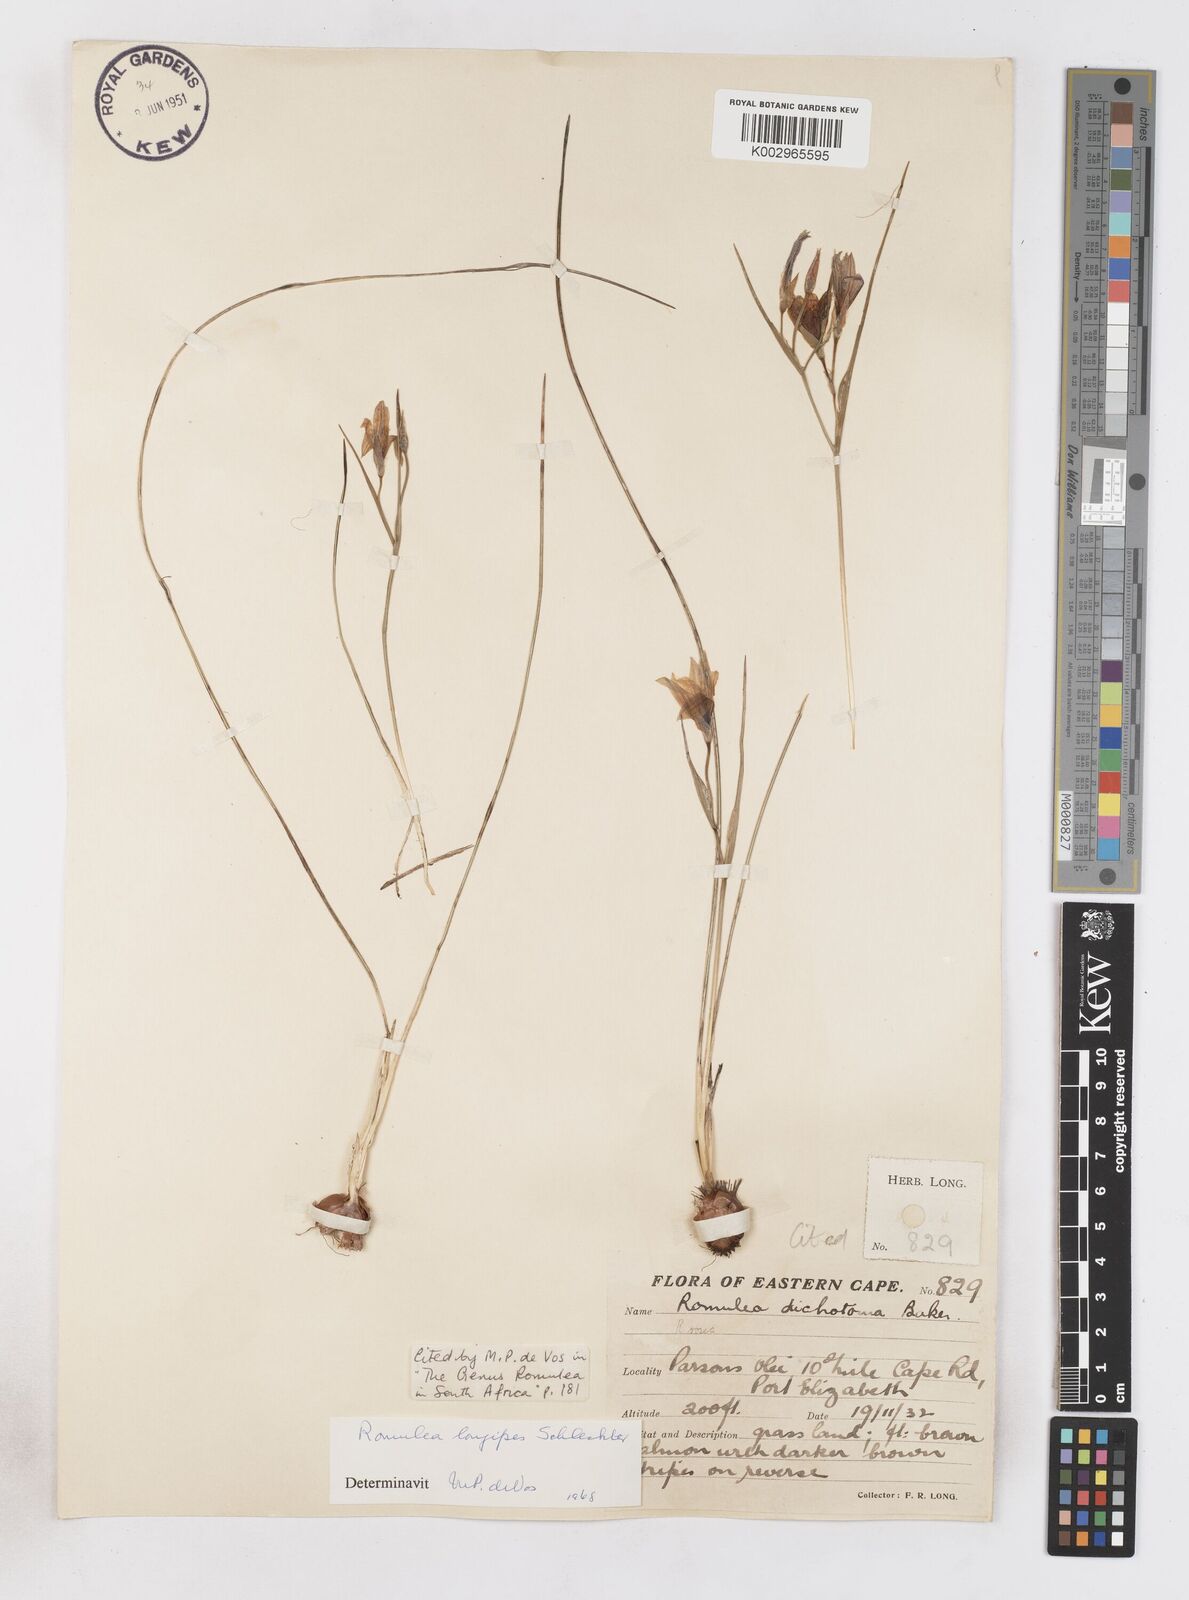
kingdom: Plantae
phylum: Tracheophyta
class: Liliopsida
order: Asparagales
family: Iridaceae
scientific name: Iridaceae
